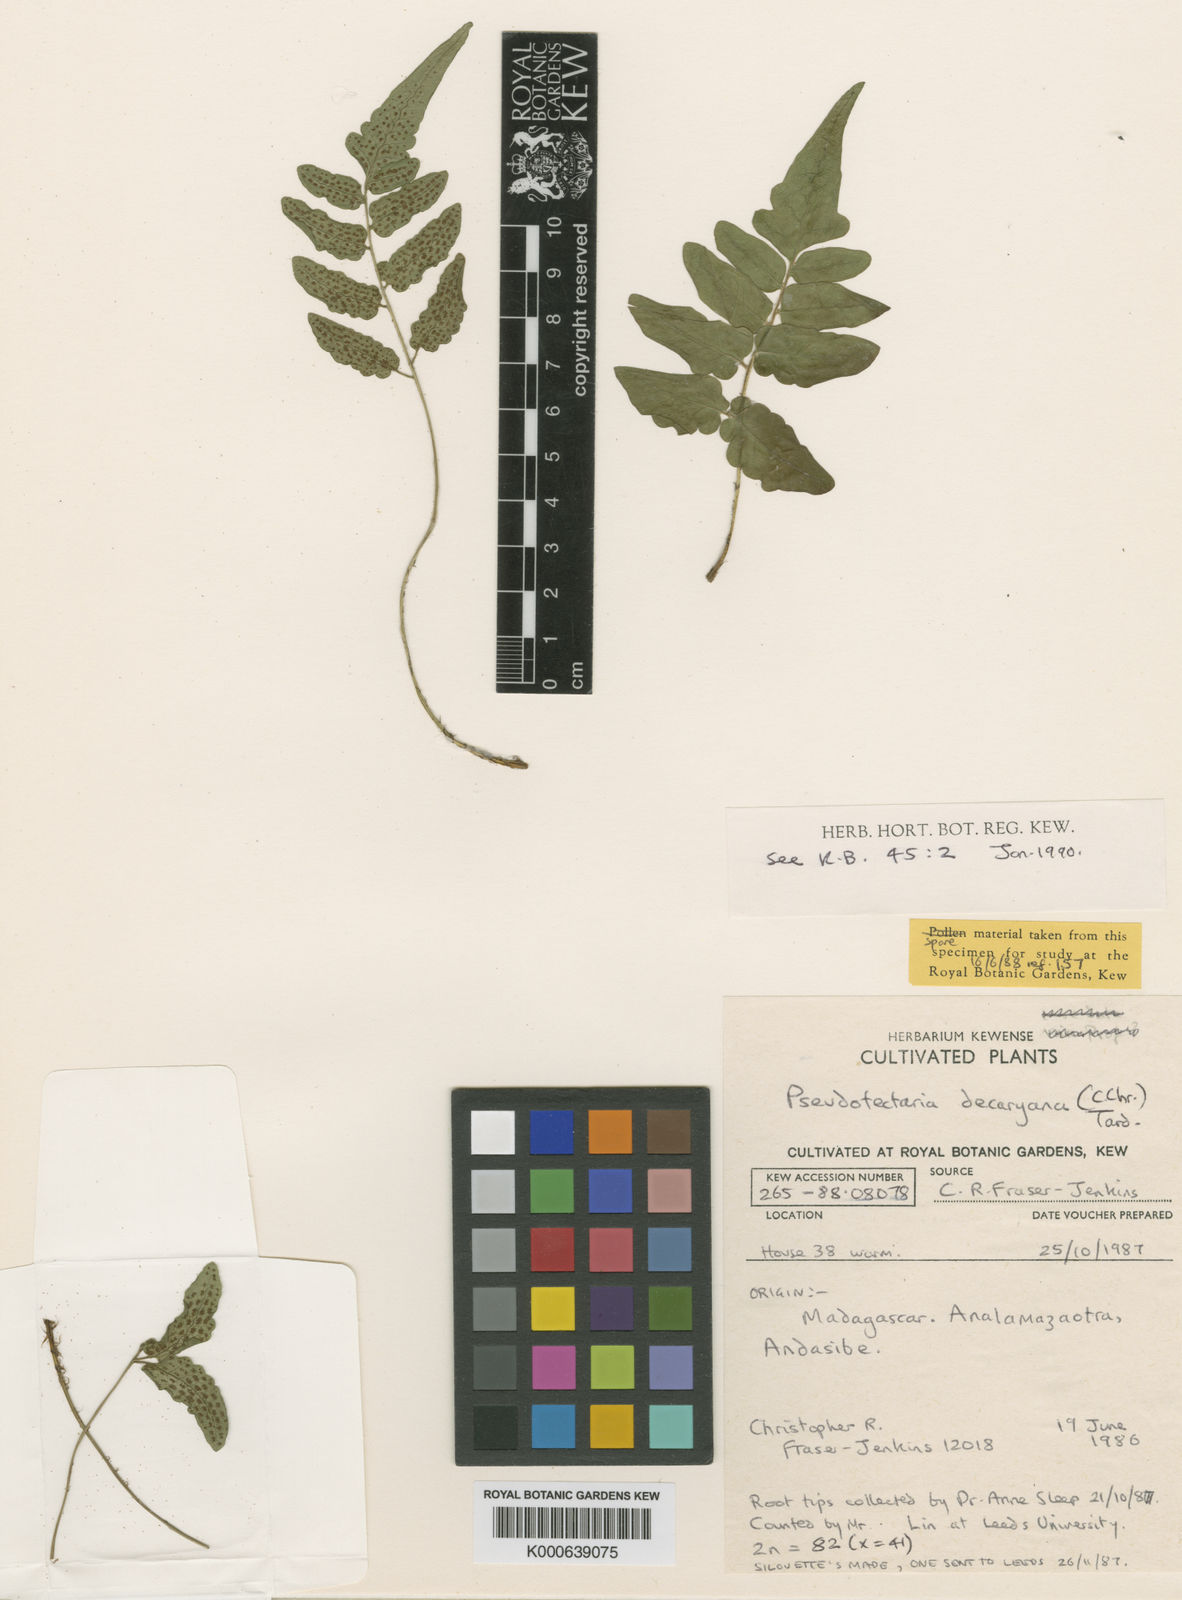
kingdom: Plantae
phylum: Tracheophyta
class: Polypodiopsida
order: Polypodiales
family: Dryopteridaceae
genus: Ctenitis
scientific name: Ctenitis decaryana
